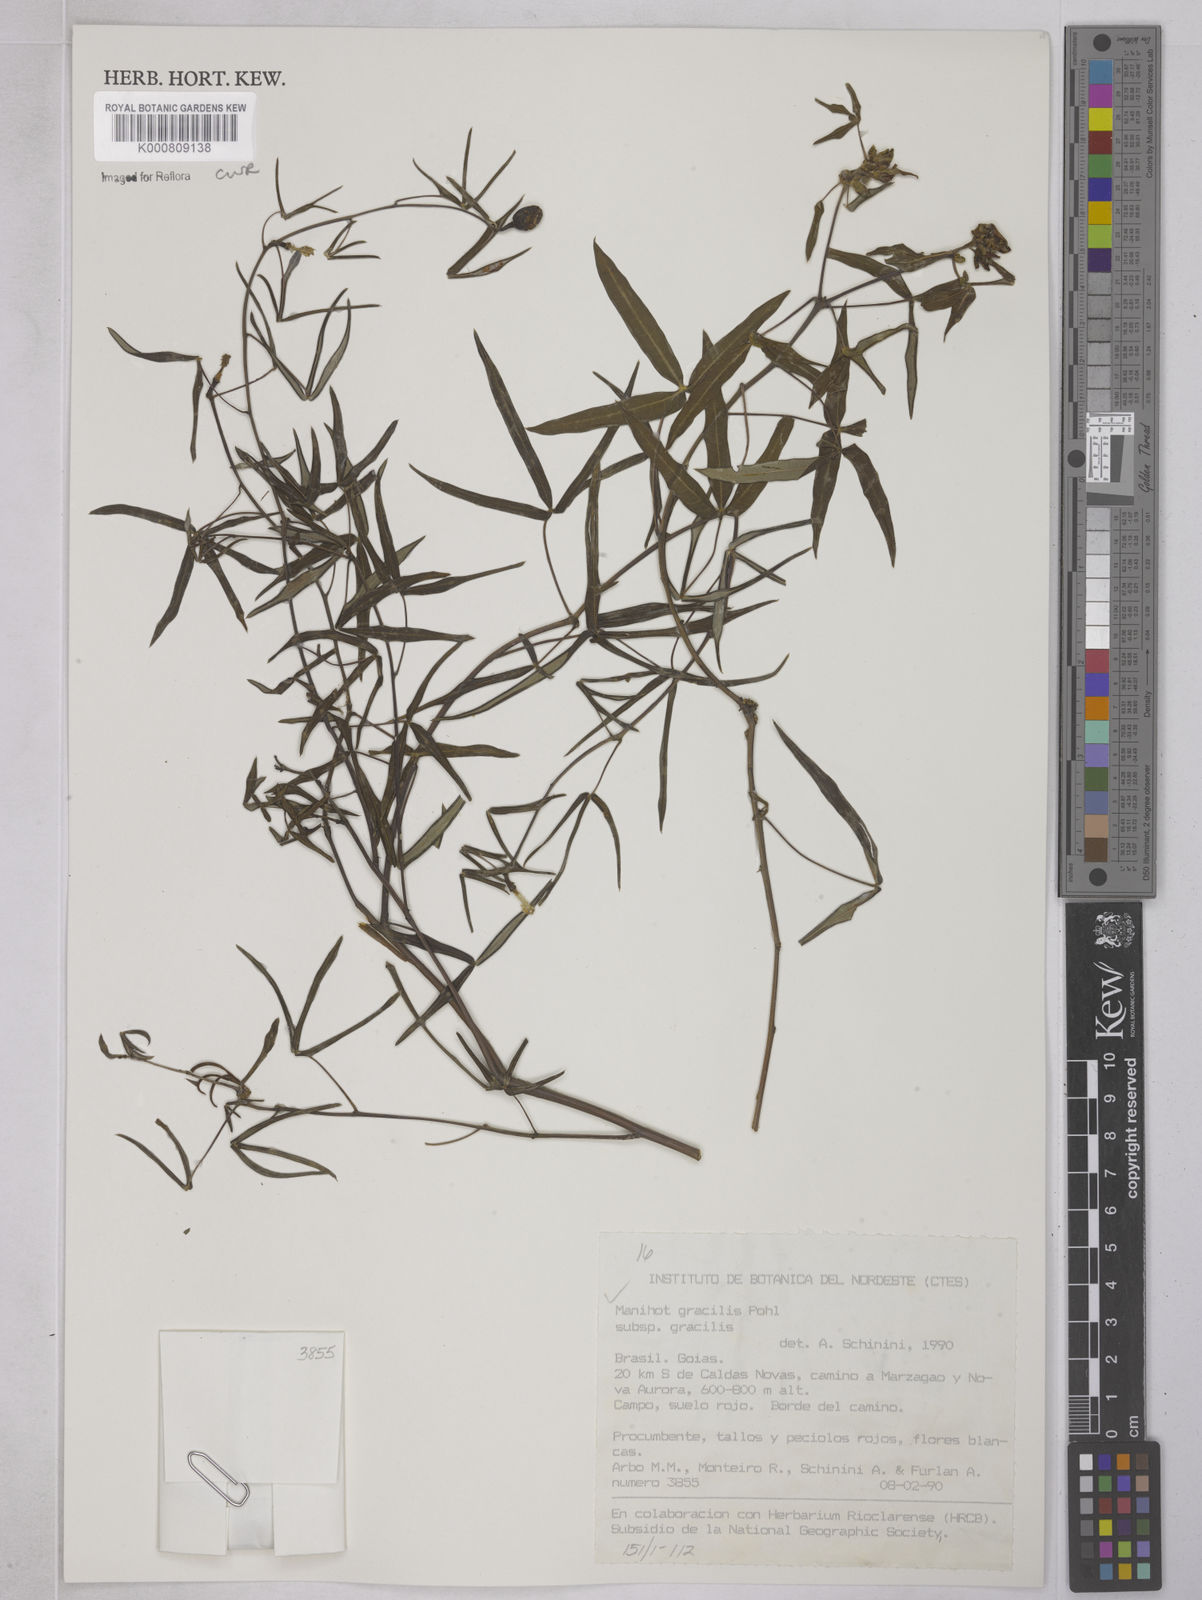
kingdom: Plantae
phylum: Tracheophyta
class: Magnoliopsida
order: Malpighiales
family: Euphorbiaceae
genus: Manihot
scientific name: Manihot gracilis
